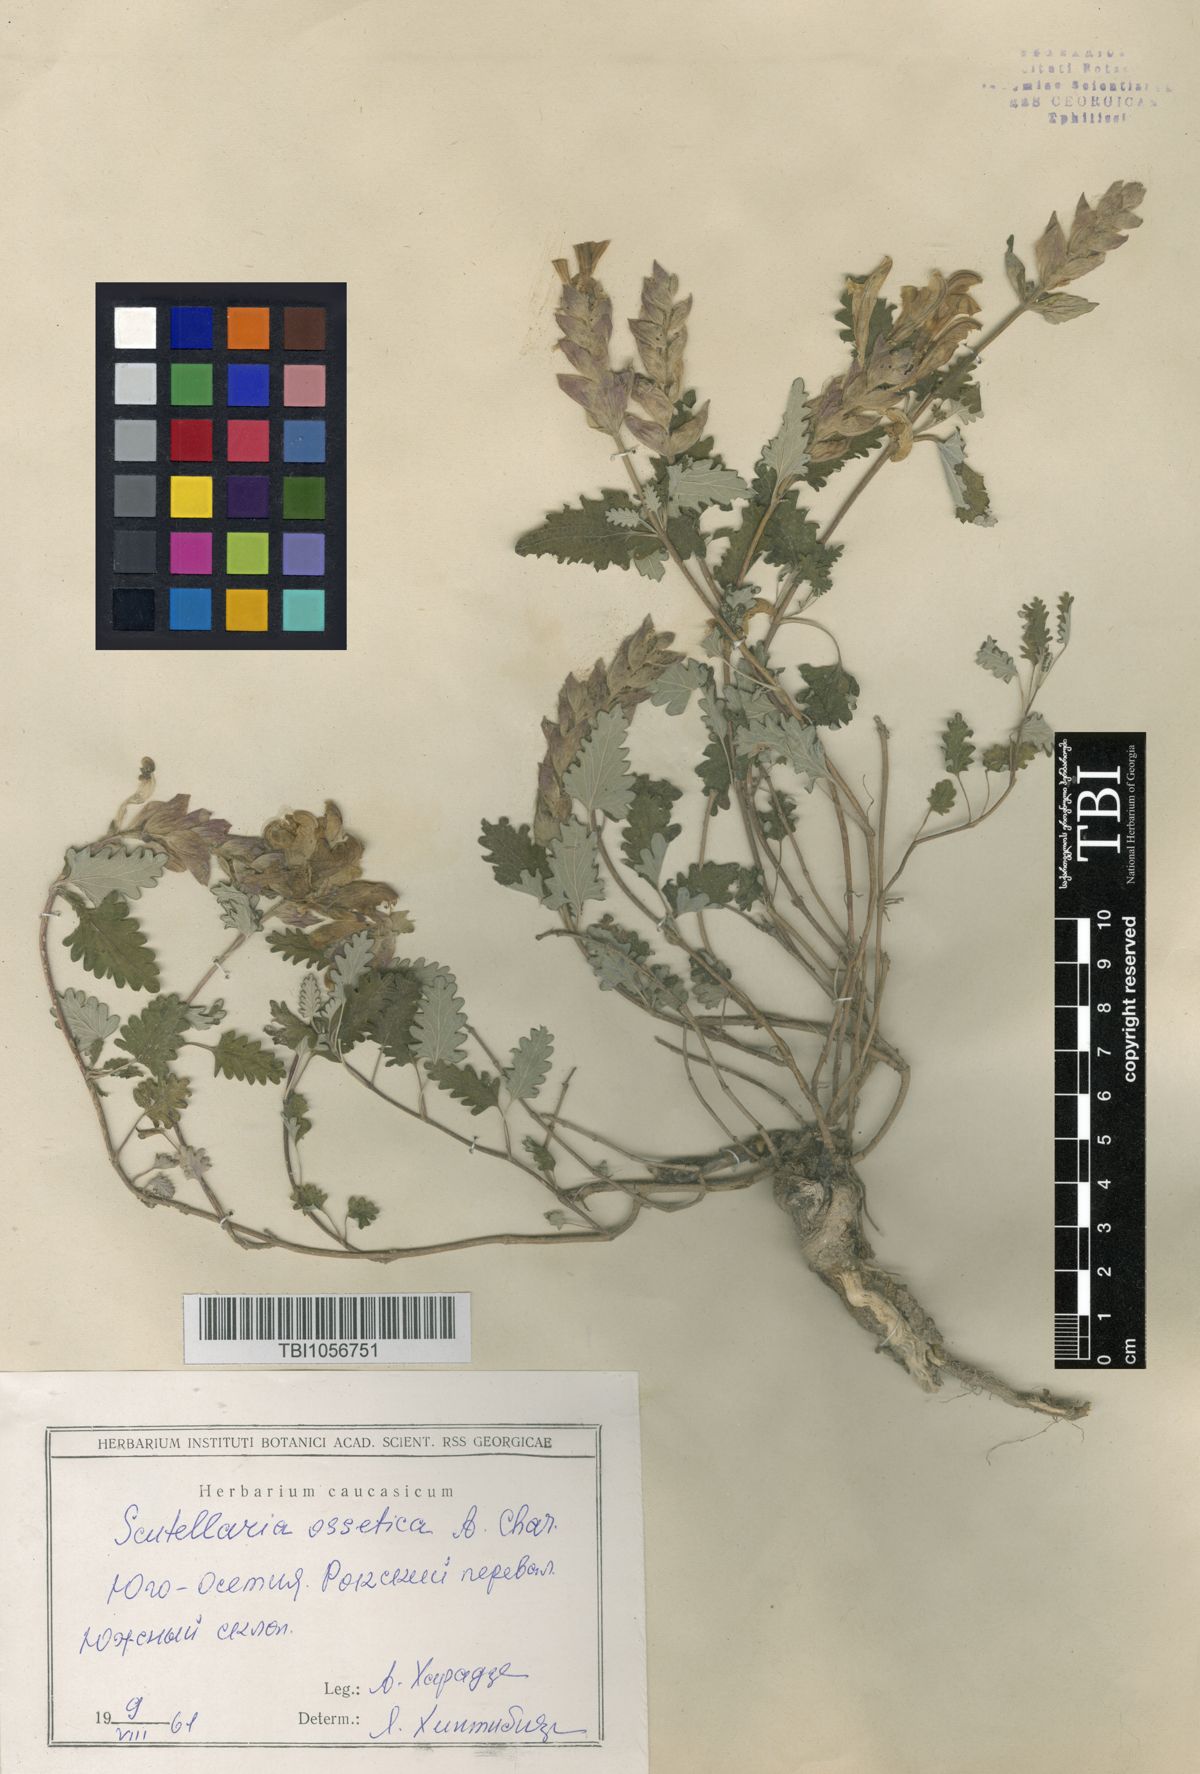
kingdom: Plantae
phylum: Tracheophyta
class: Magnoliopsida
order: Lamiales
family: Lamiaceae
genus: Scutellaria
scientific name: Scutellaria ossethica
